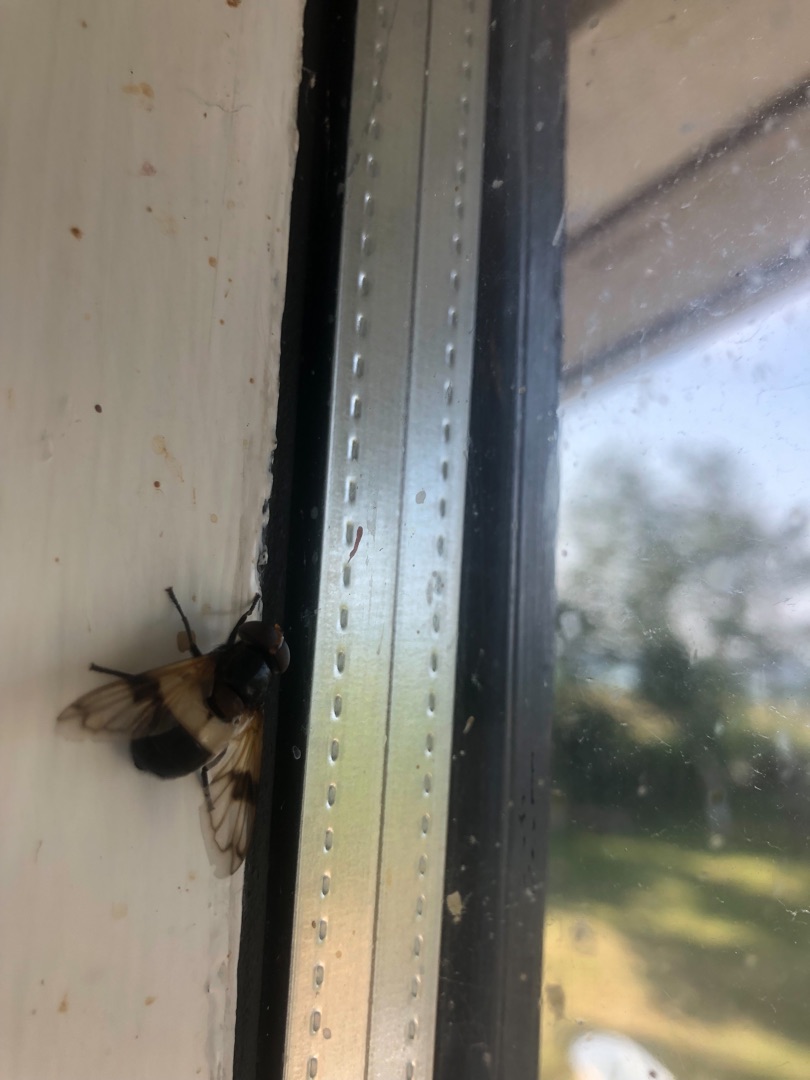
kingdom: Animalia
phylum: Arthropoda
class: Insecta
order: Diptera
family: Syrphidae
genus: Volucella
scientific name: Volucella pellucens
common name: Hvidbåndet humlesvirreflue
